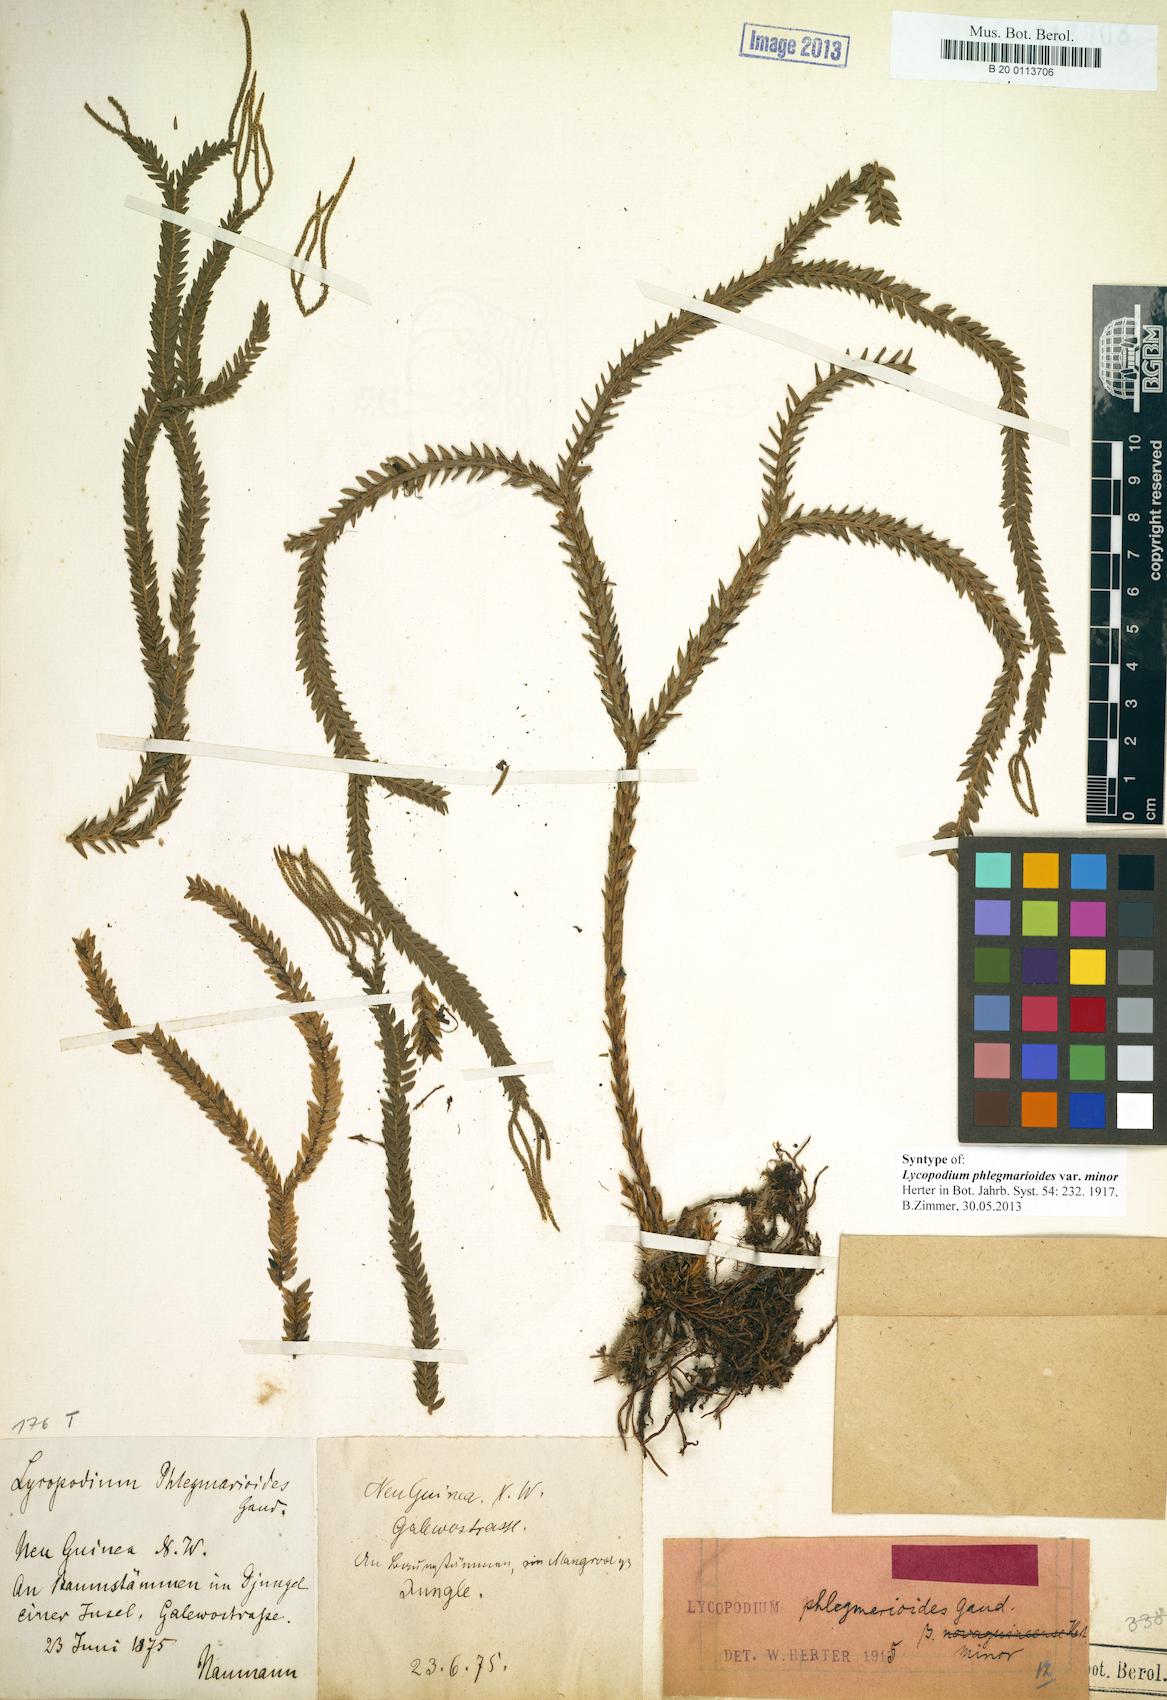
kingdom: Plantae
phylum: Tracheophyta
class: Lycopodiopsida
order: Lycopodiales
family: Lycopodiaceae
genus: Phlegmariurus
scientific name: Phlegmariurus phlegmarioides
